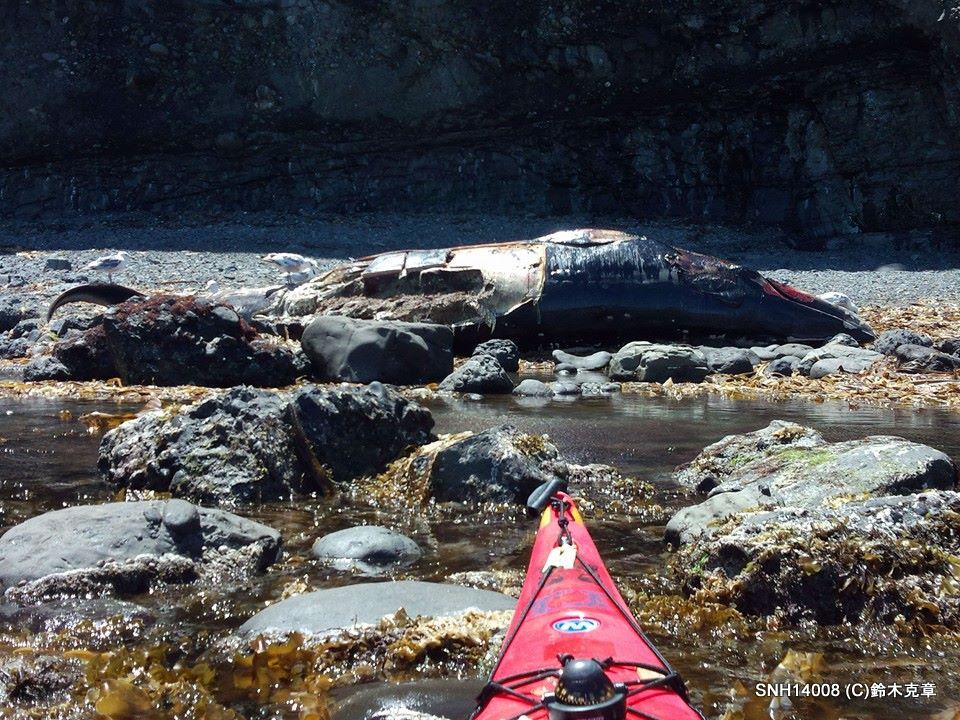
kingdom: Animalia
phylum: Chordata
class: Mammalia
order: Cetacea
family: Balaenopteridae
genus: Balaenoptera
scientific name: Balaenoptera acutorostrata
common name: Minke whale
